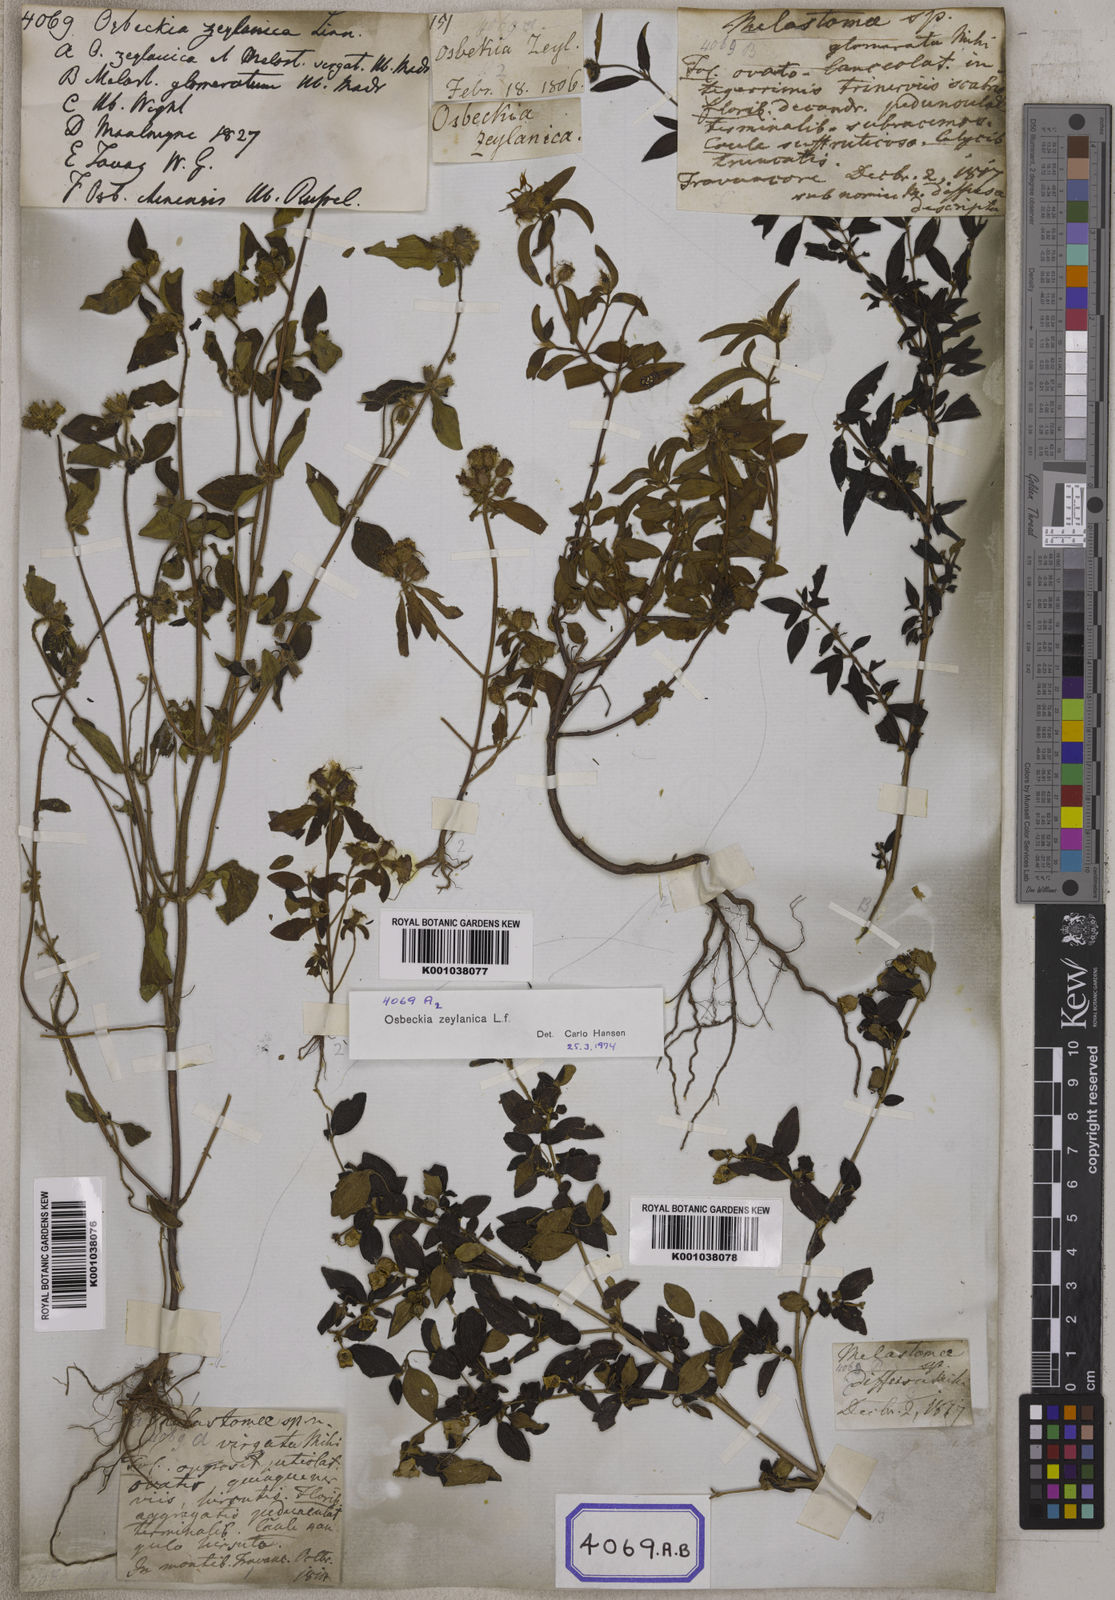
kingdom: Plantae
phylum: Tracheophyta
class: Magnoliopsida
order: Myrtales
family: Melastomataceae
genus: Osbeckia
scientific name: Osbeckia zeylanica
